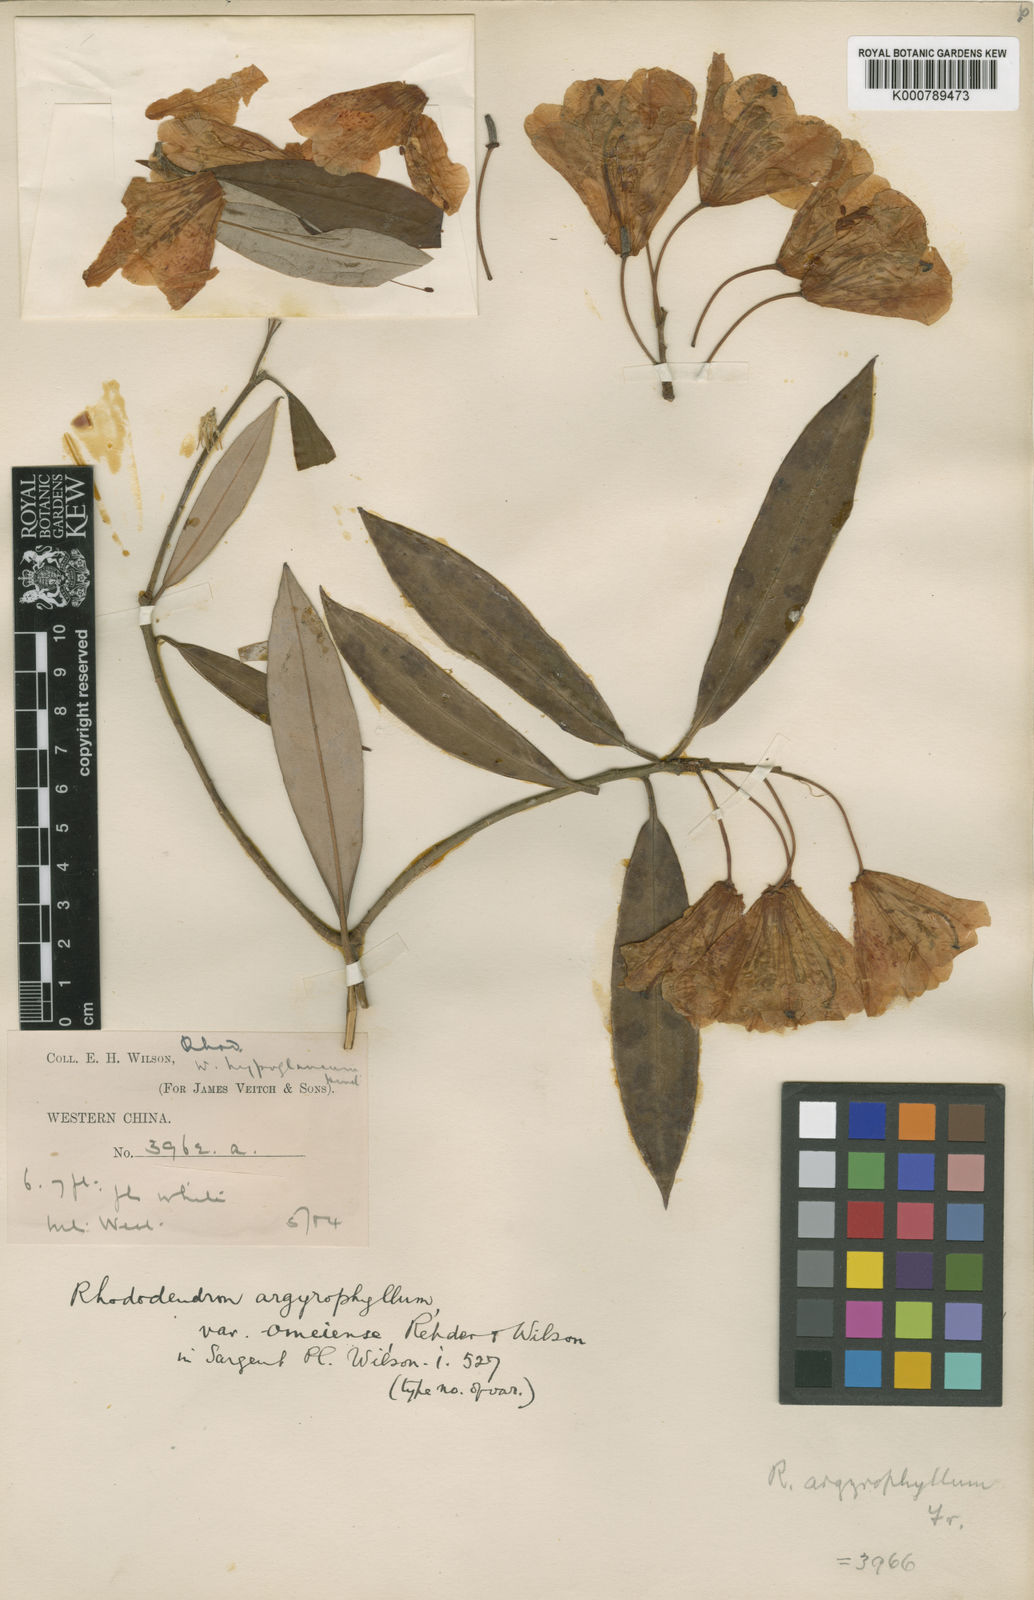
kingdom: Plantae
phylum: Tracheophyta
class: Magnoliopsida
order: Ericales
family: Ericaceae
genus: Rhododendron
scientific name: Rhododendron
